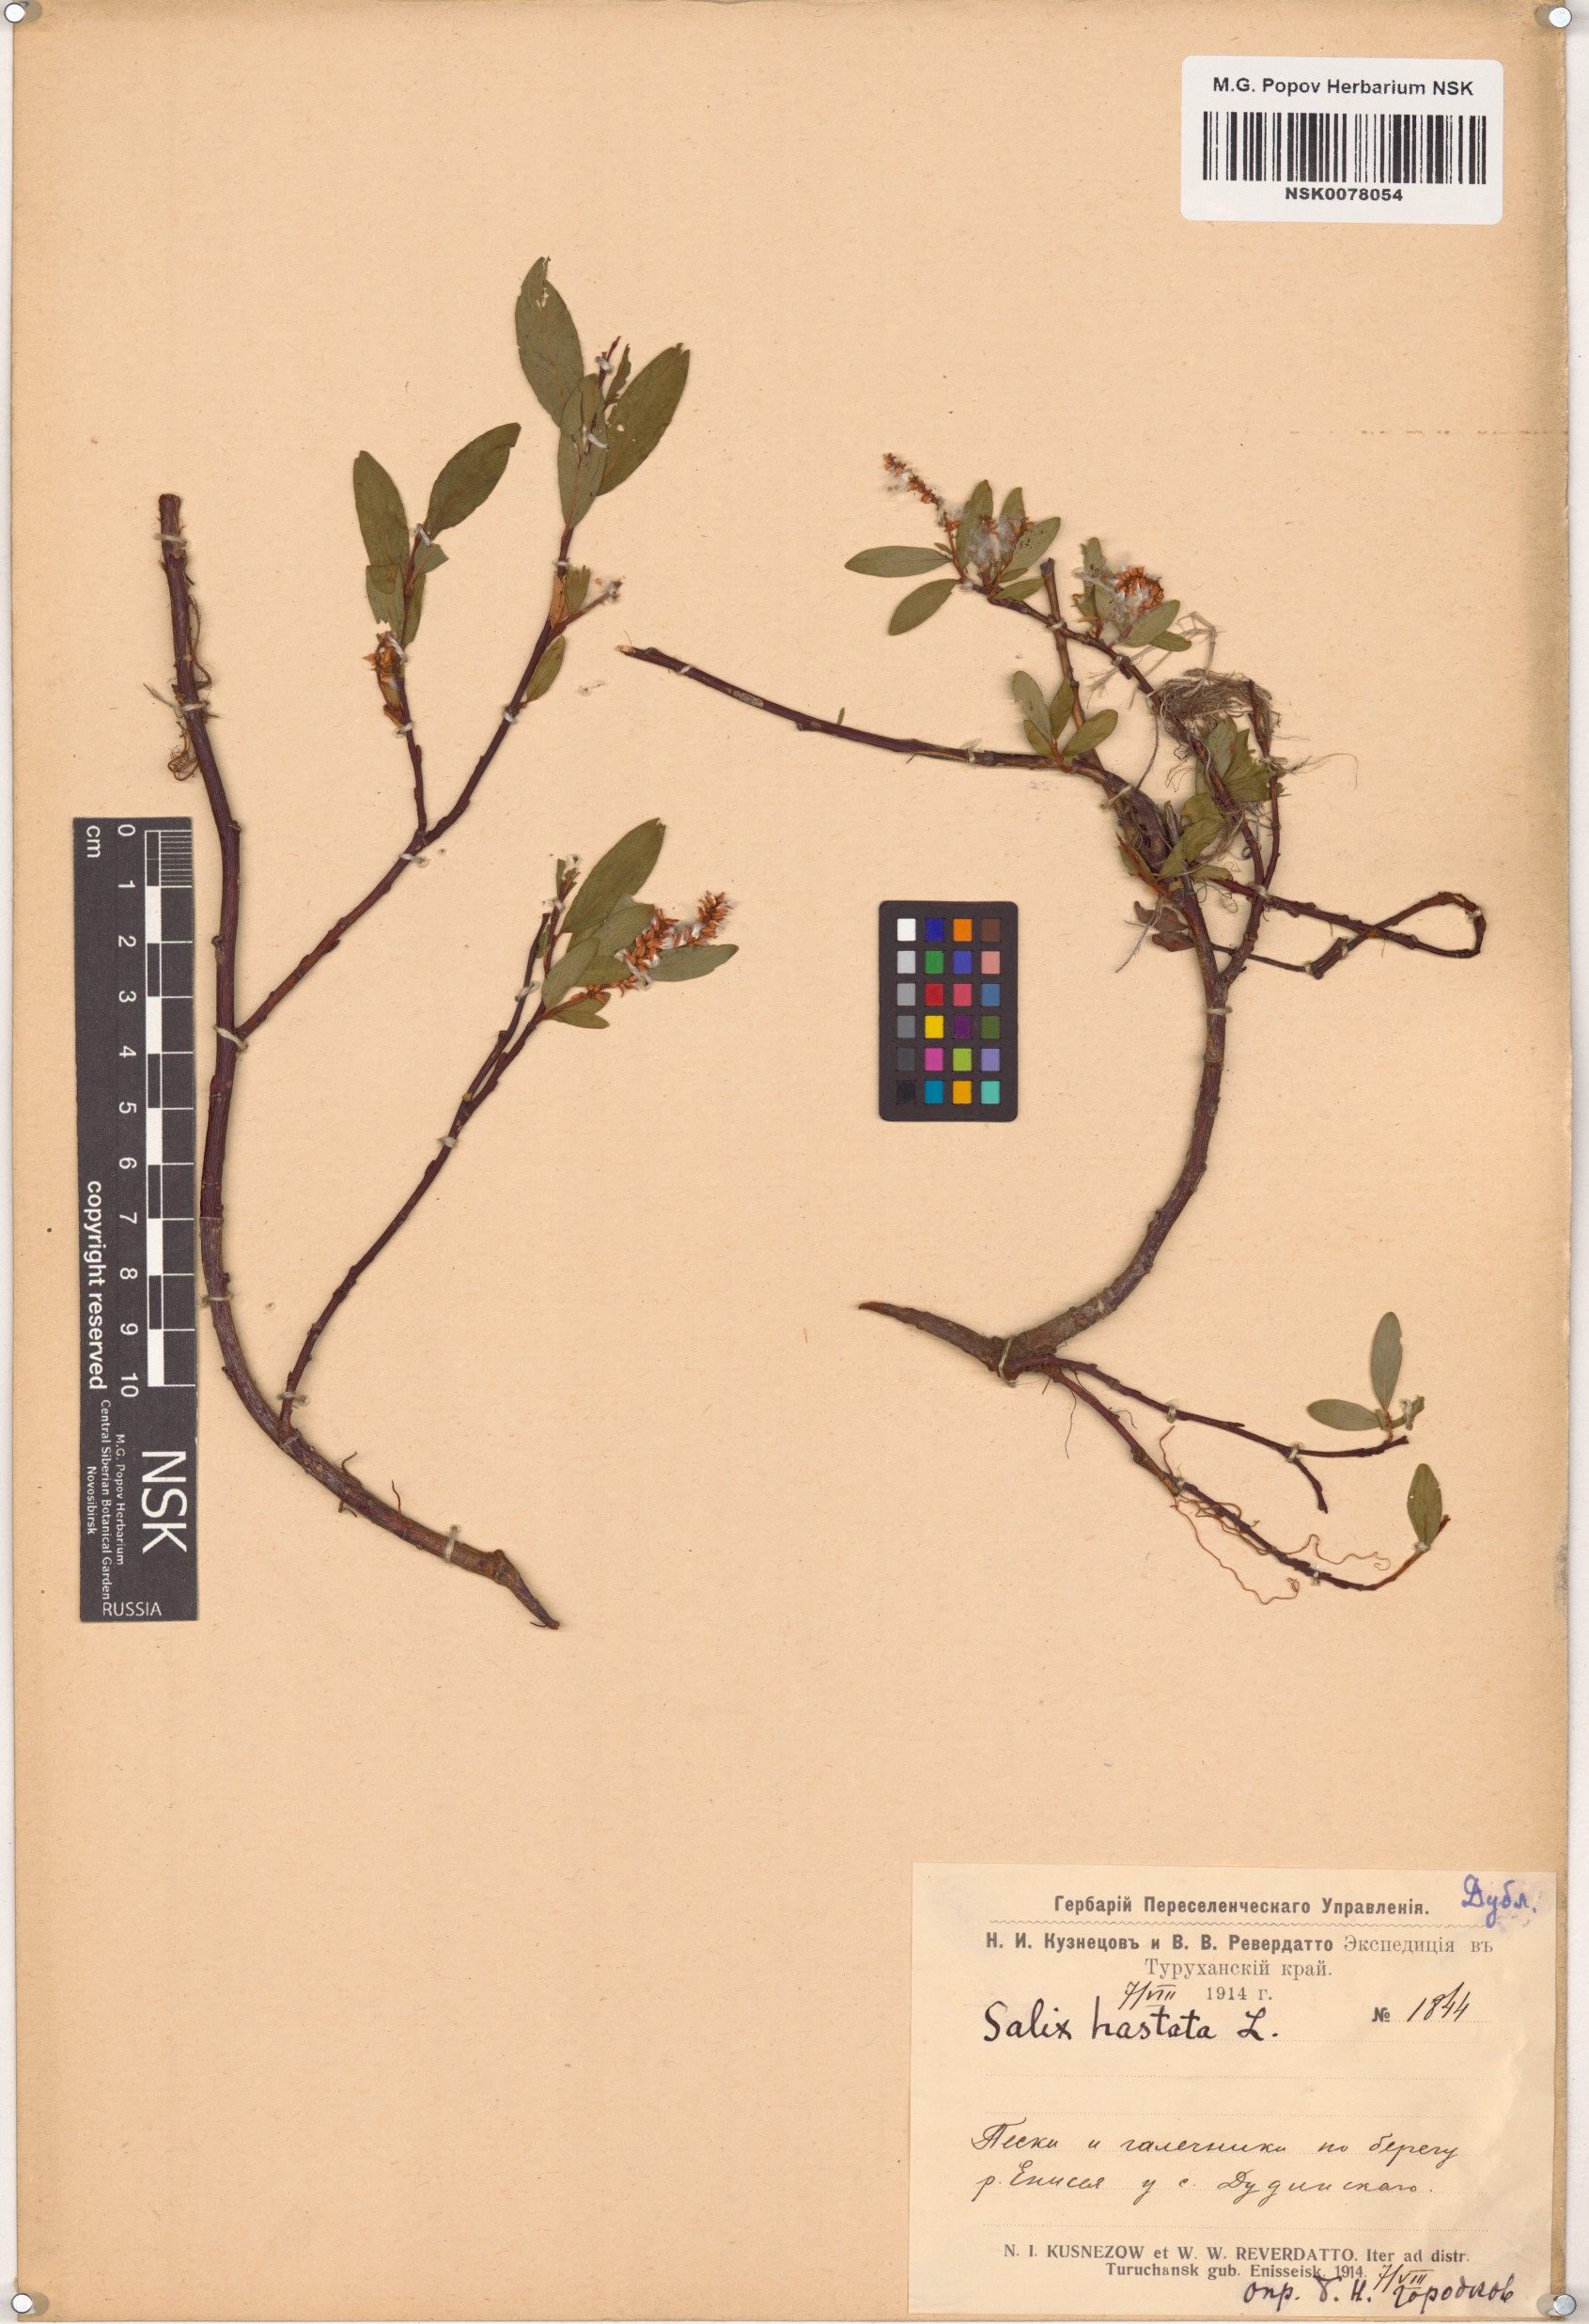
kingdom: Plantae
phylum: Tracheophyta
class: Magnoliopsida
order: Malpighiales
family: Salicaceae
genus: Salix
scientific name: Salix hastata
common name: Halberd willow
